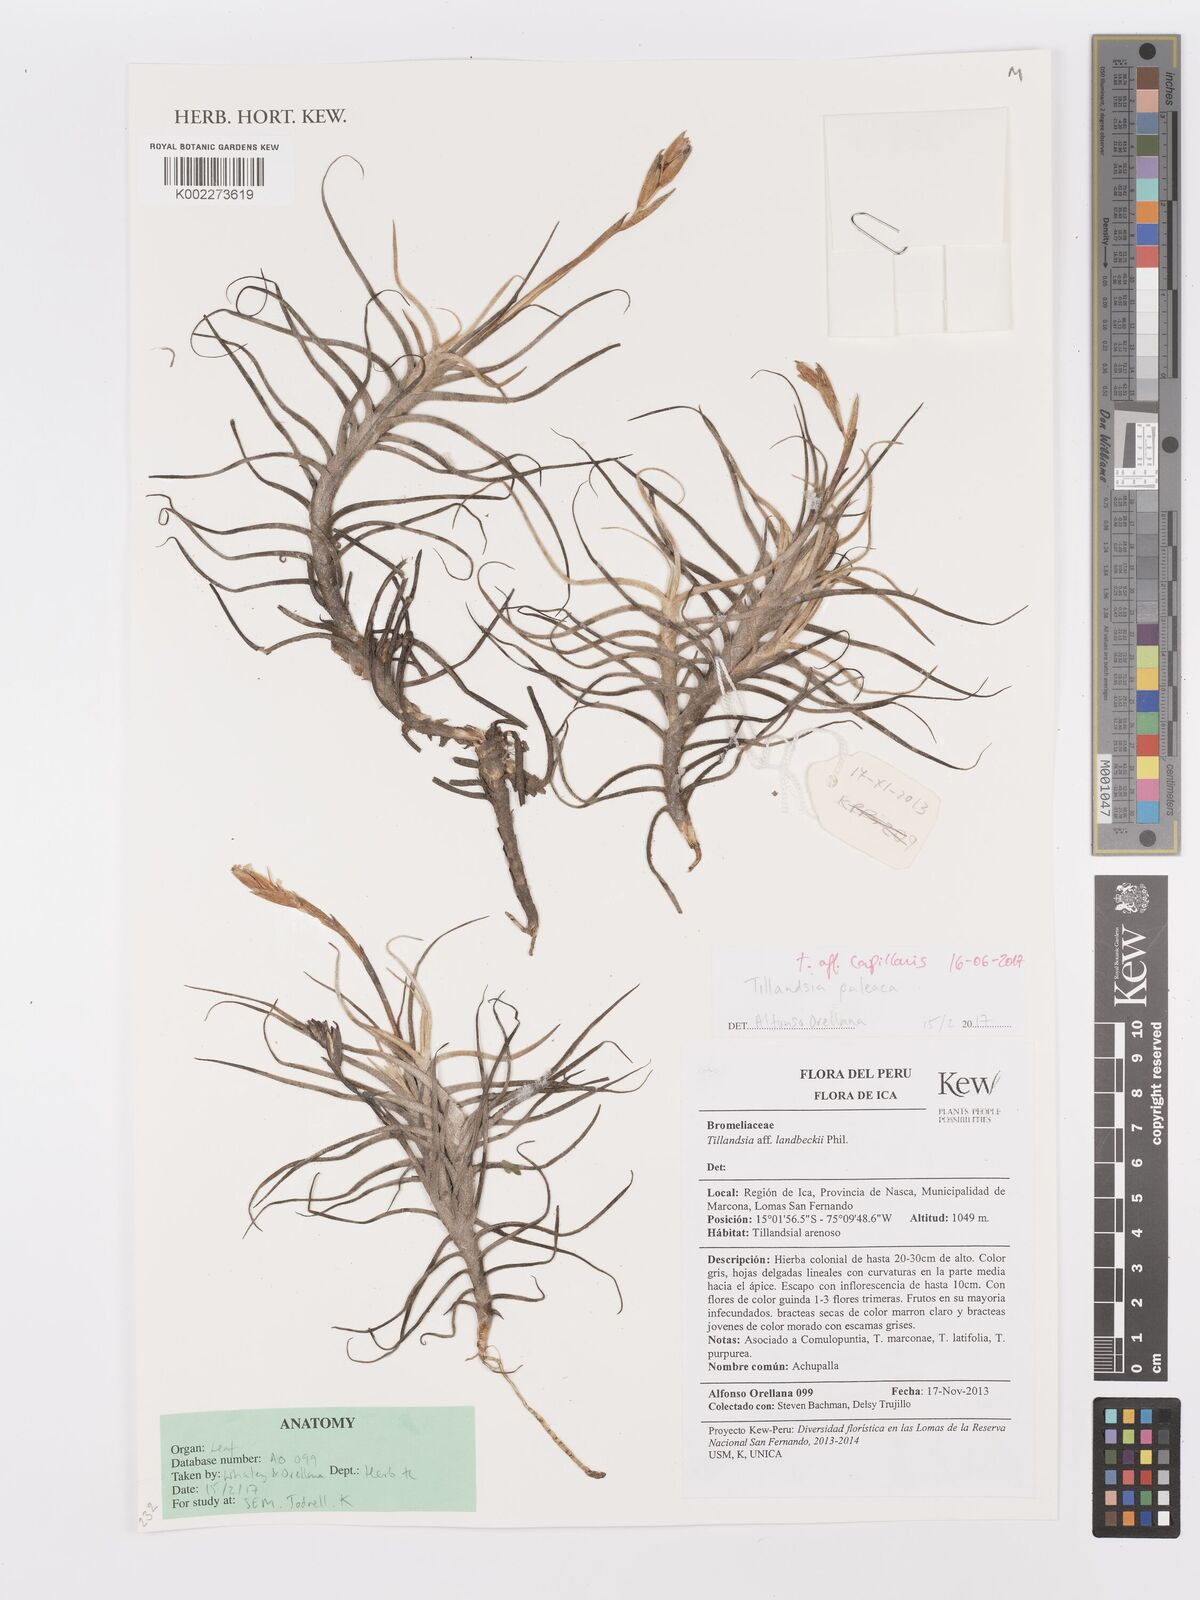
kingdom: Plantae
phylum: Tracheophyta
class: Liliopsida
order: Poales
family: Bromeliaceae
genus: Tillandsia
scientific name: Tillandsia capillaris
